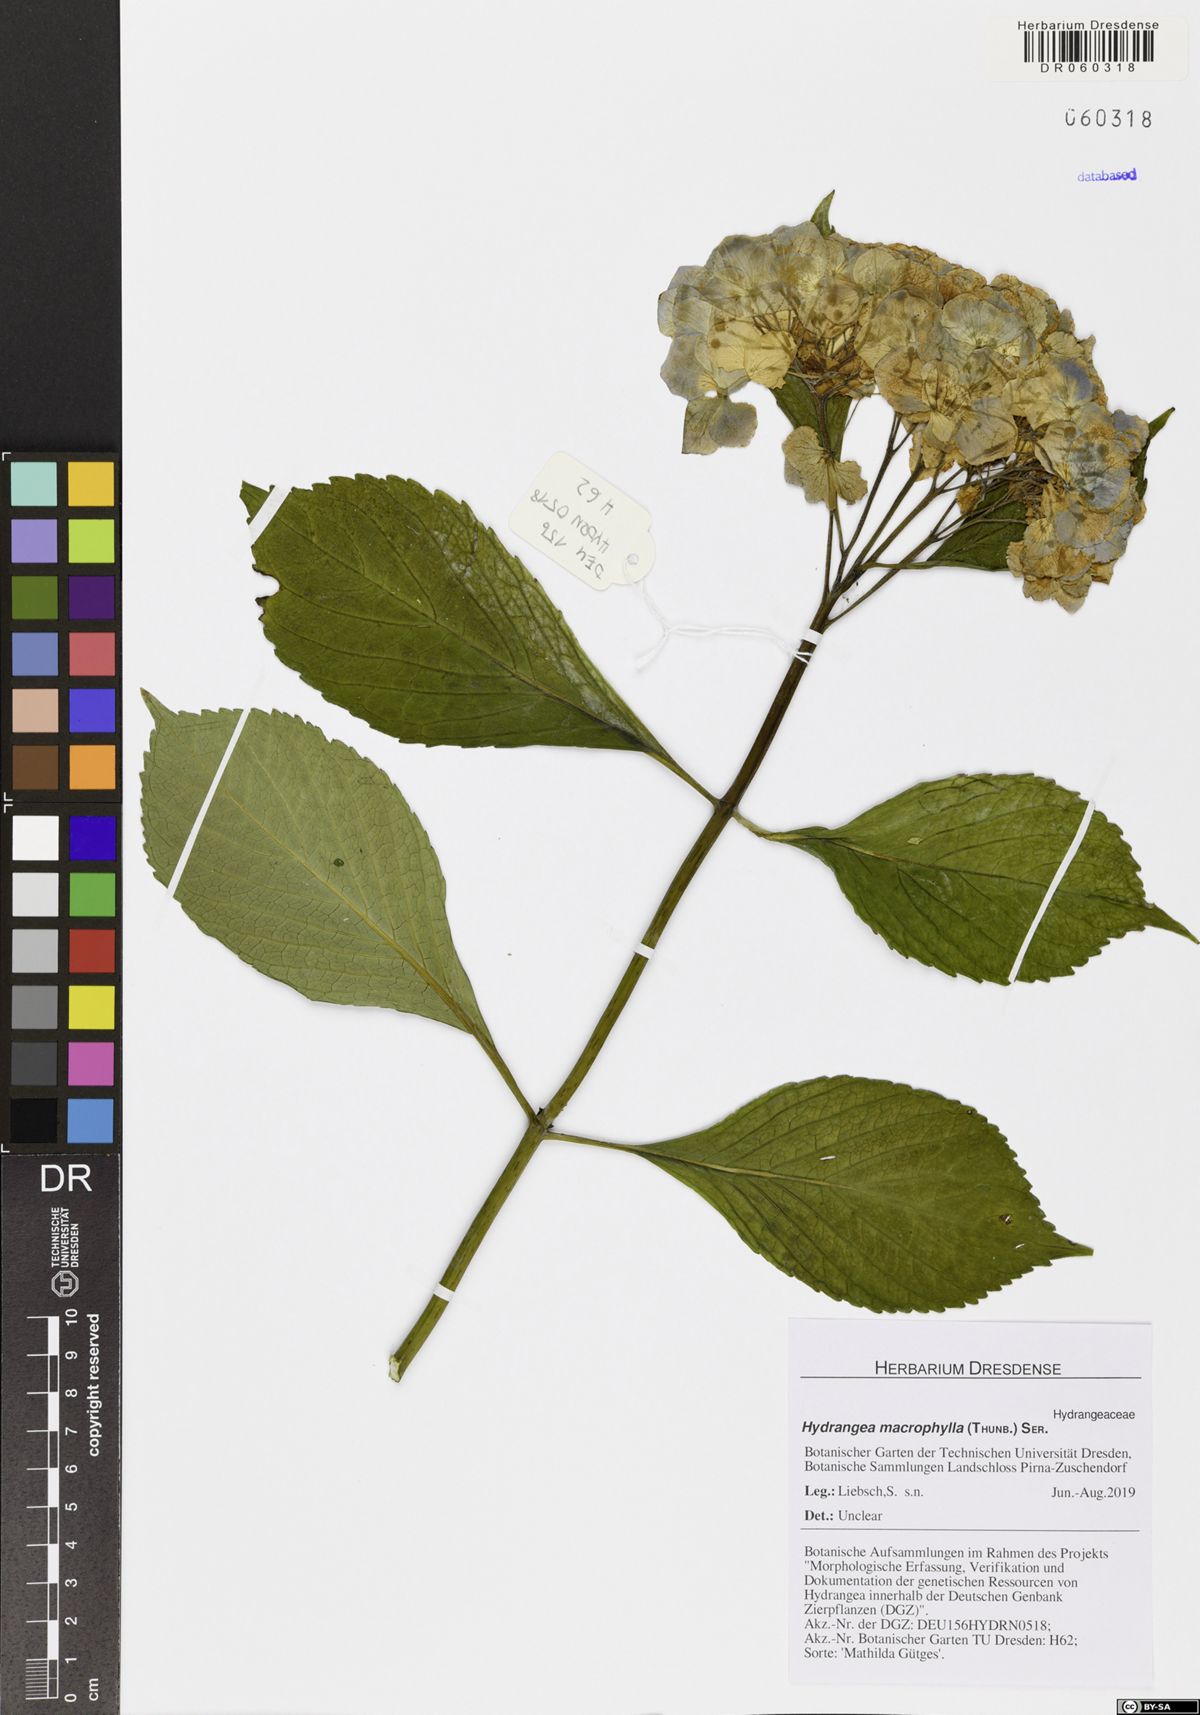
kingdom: Plantae
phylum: Tracheophyta
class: Magnoliopsida
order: Cornales
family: Hydrangeaceae
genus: Hydrangea
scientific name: Hydrangea macrophylla
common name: Hydrangea
